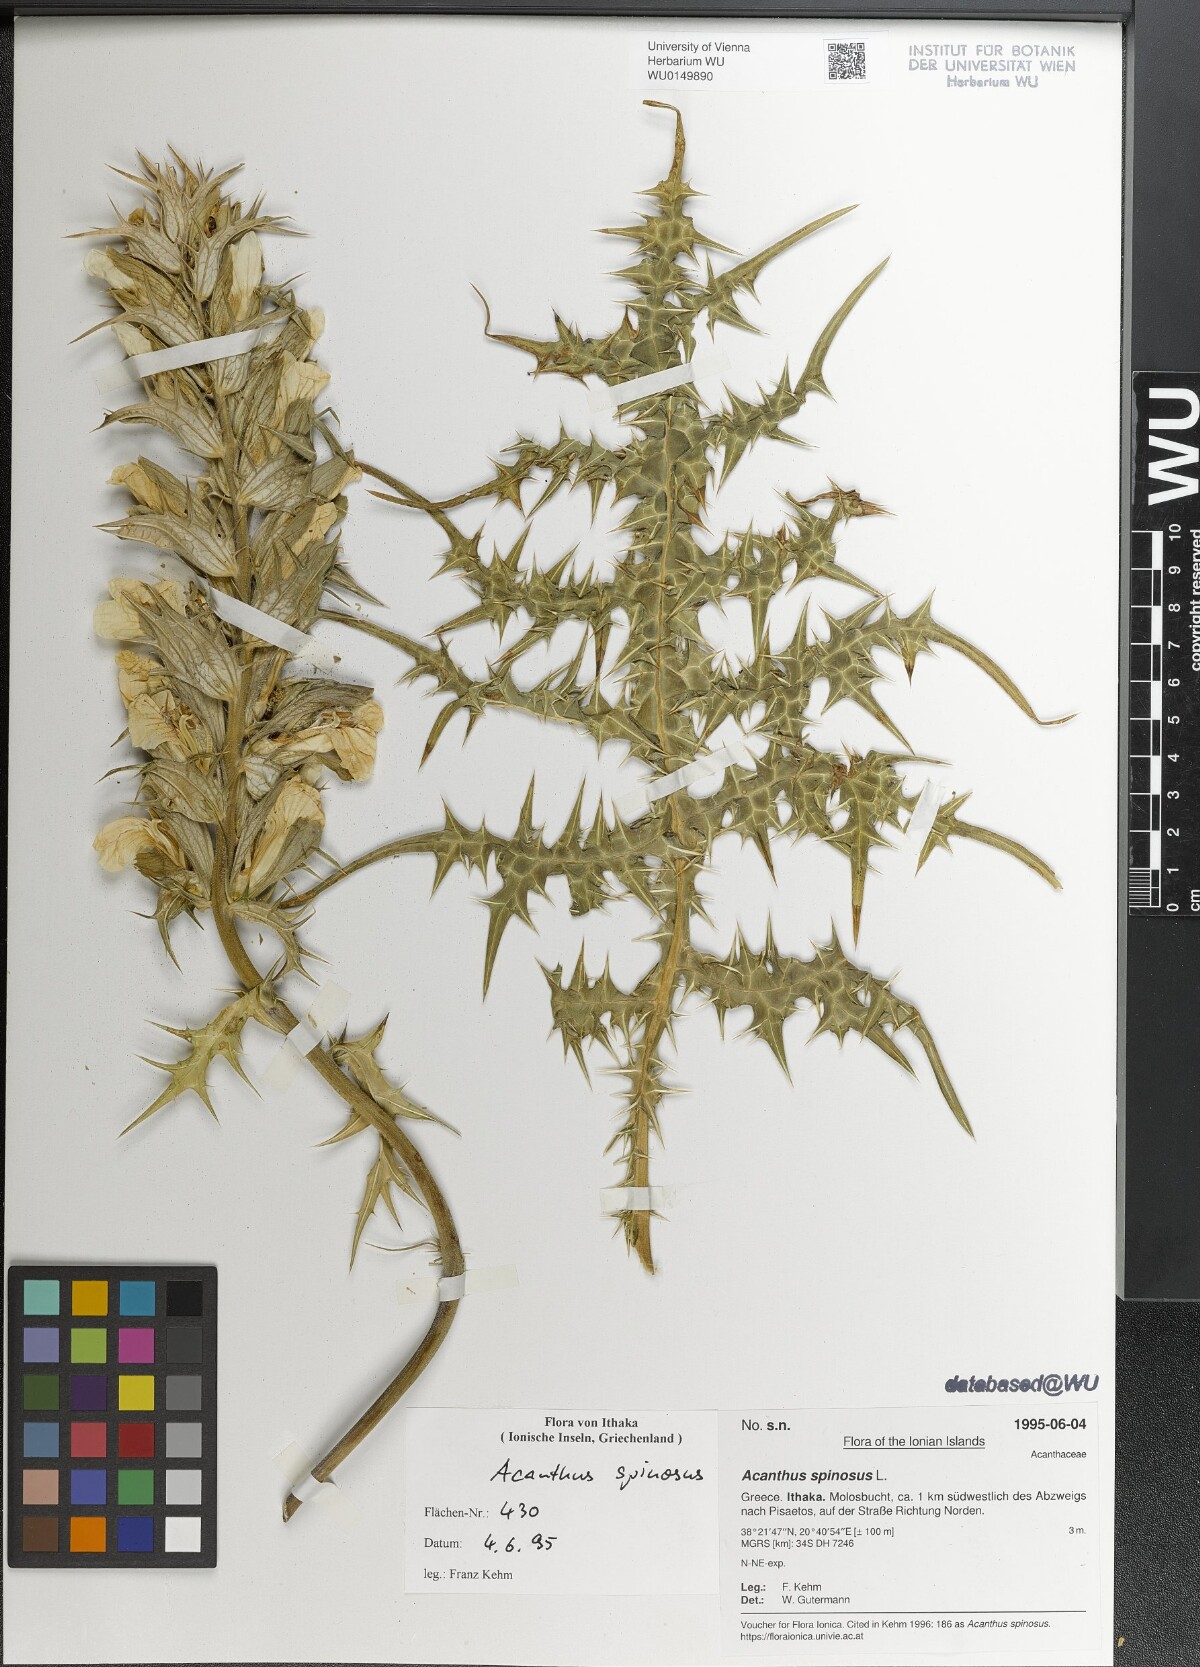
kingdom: Plantae
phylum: Tracheophyta
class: Magnoliopsida
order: Lamiales
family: Acanthaceae
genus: Acanthus
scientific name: Acanthus spinosus
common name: Spiny bear's-breech
